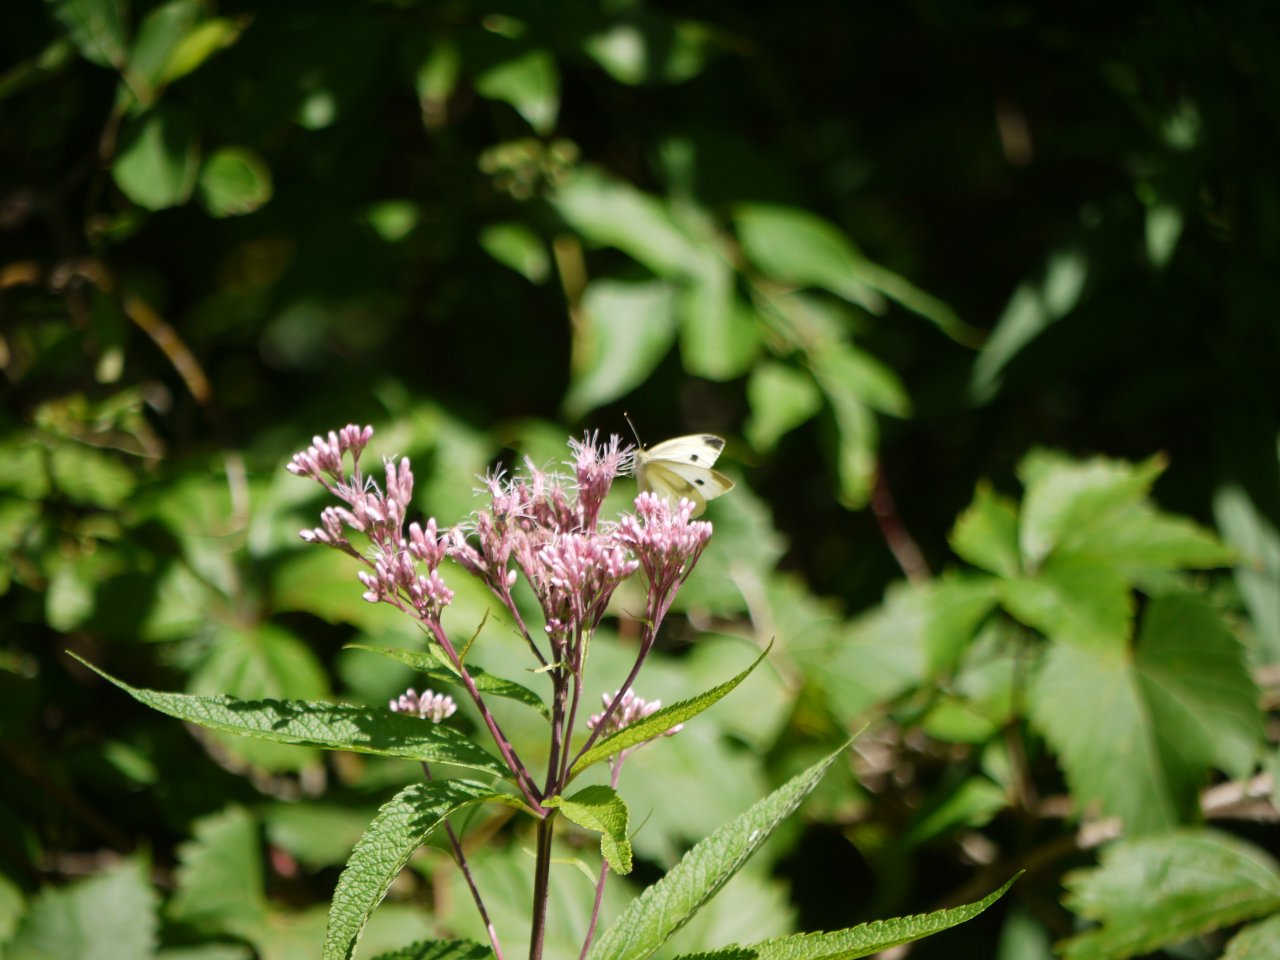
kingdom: Animalia
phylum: Arthropoda
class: Insecta
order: Lepidoptera
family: Pieridae
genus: Pieris
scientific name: Pieris rapae
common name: Cabbage White
